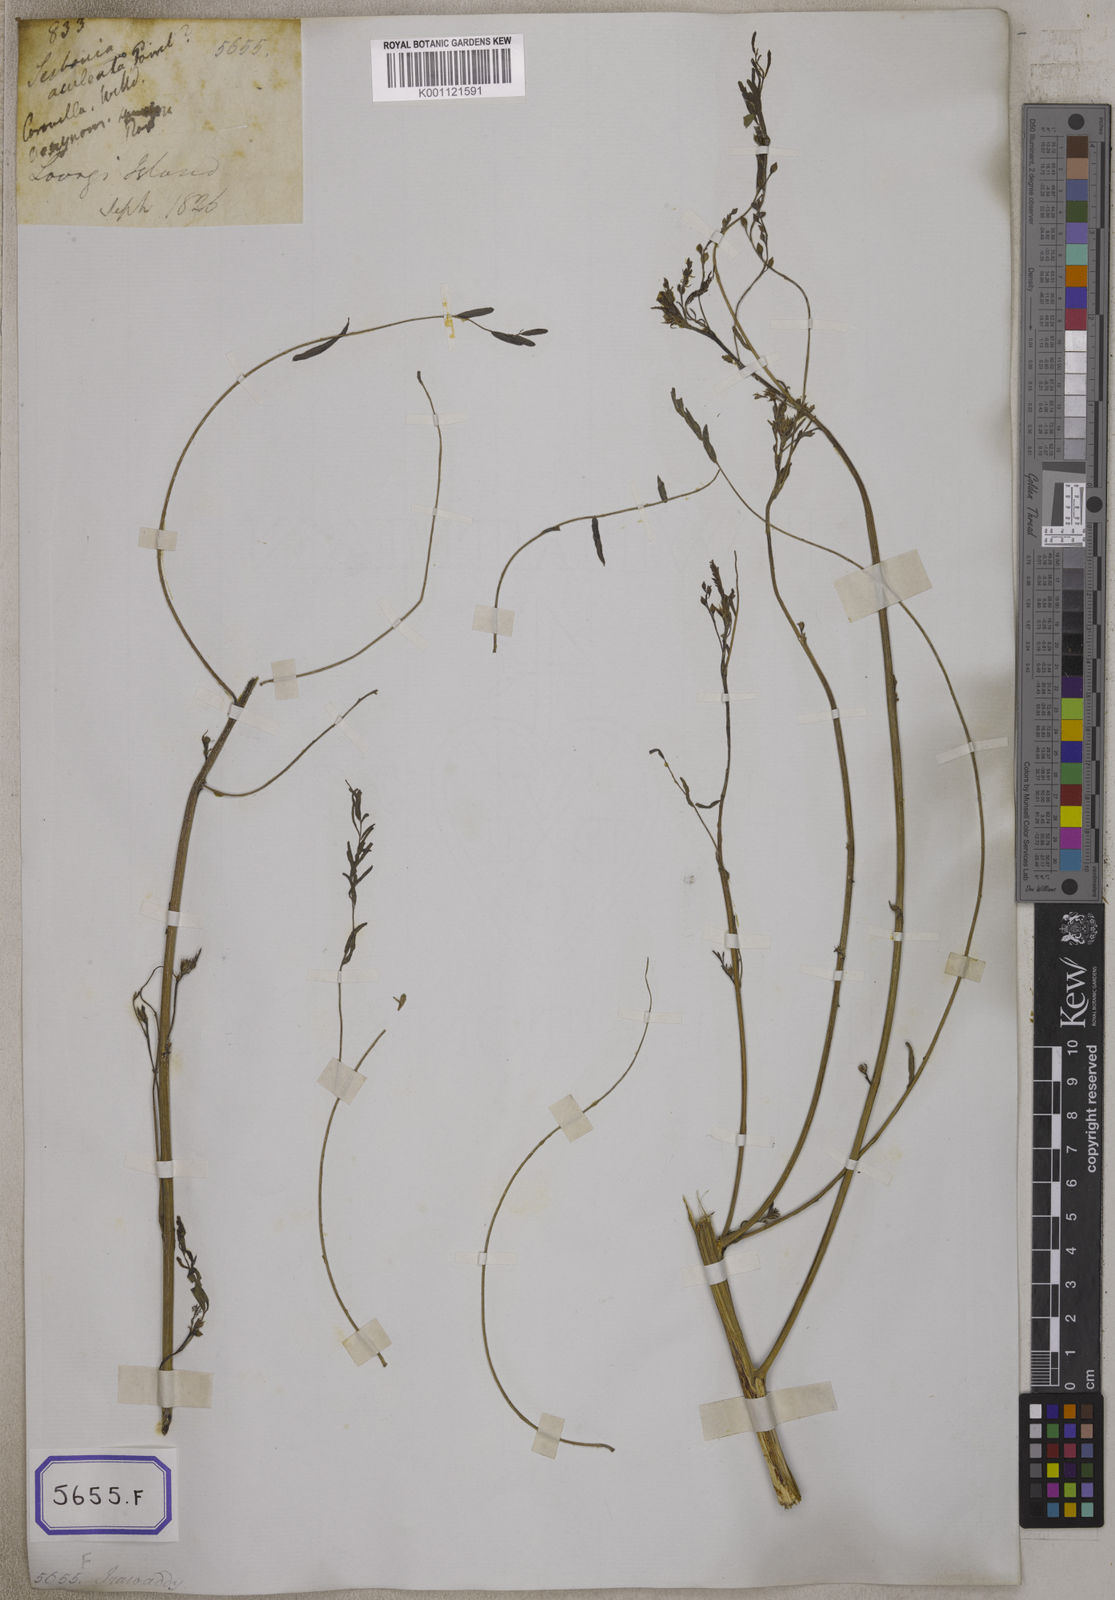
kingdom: Plantae
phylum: Tracheophyta
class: Magnoliopsida
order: Fabales
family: Fabaceae
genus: Sesbania
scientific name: Sesbania bispinosa
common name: Sesbania pea
